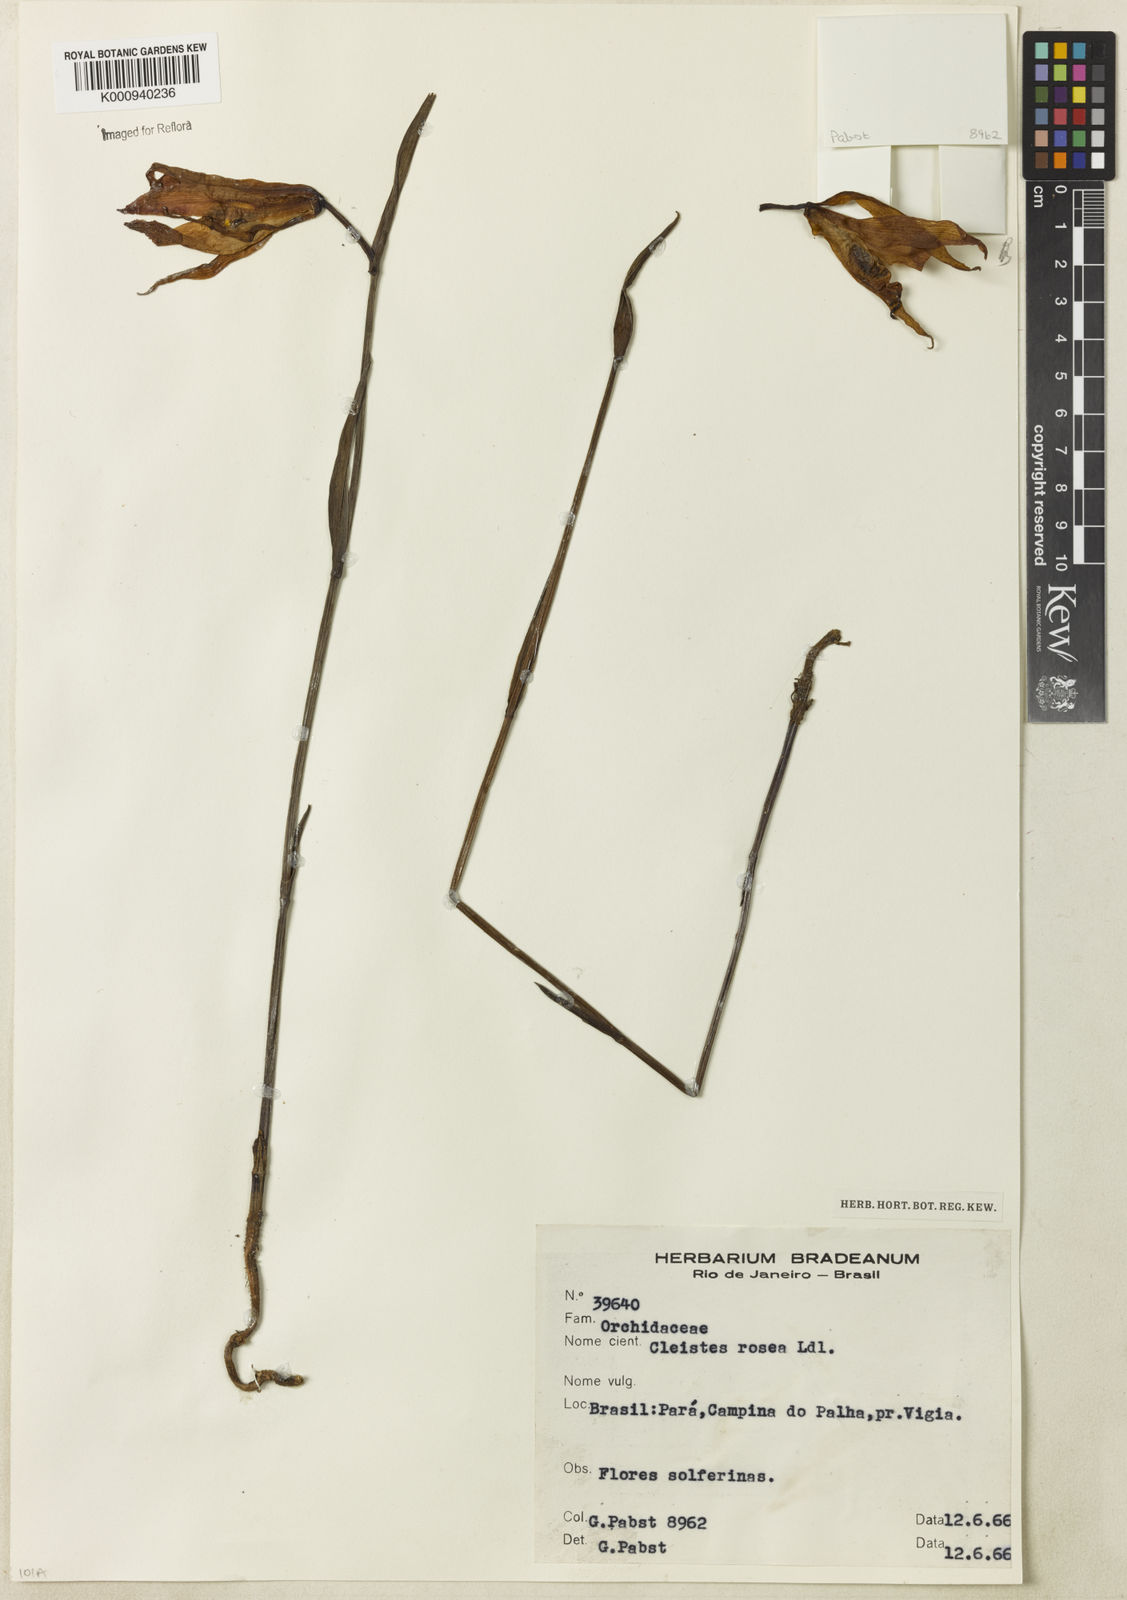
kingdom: Plantae
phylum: Tracheophyta
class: Liliopsida
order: Asparagales
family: Orchidaceae
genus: Cleistes
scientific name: Cleistes rosea
